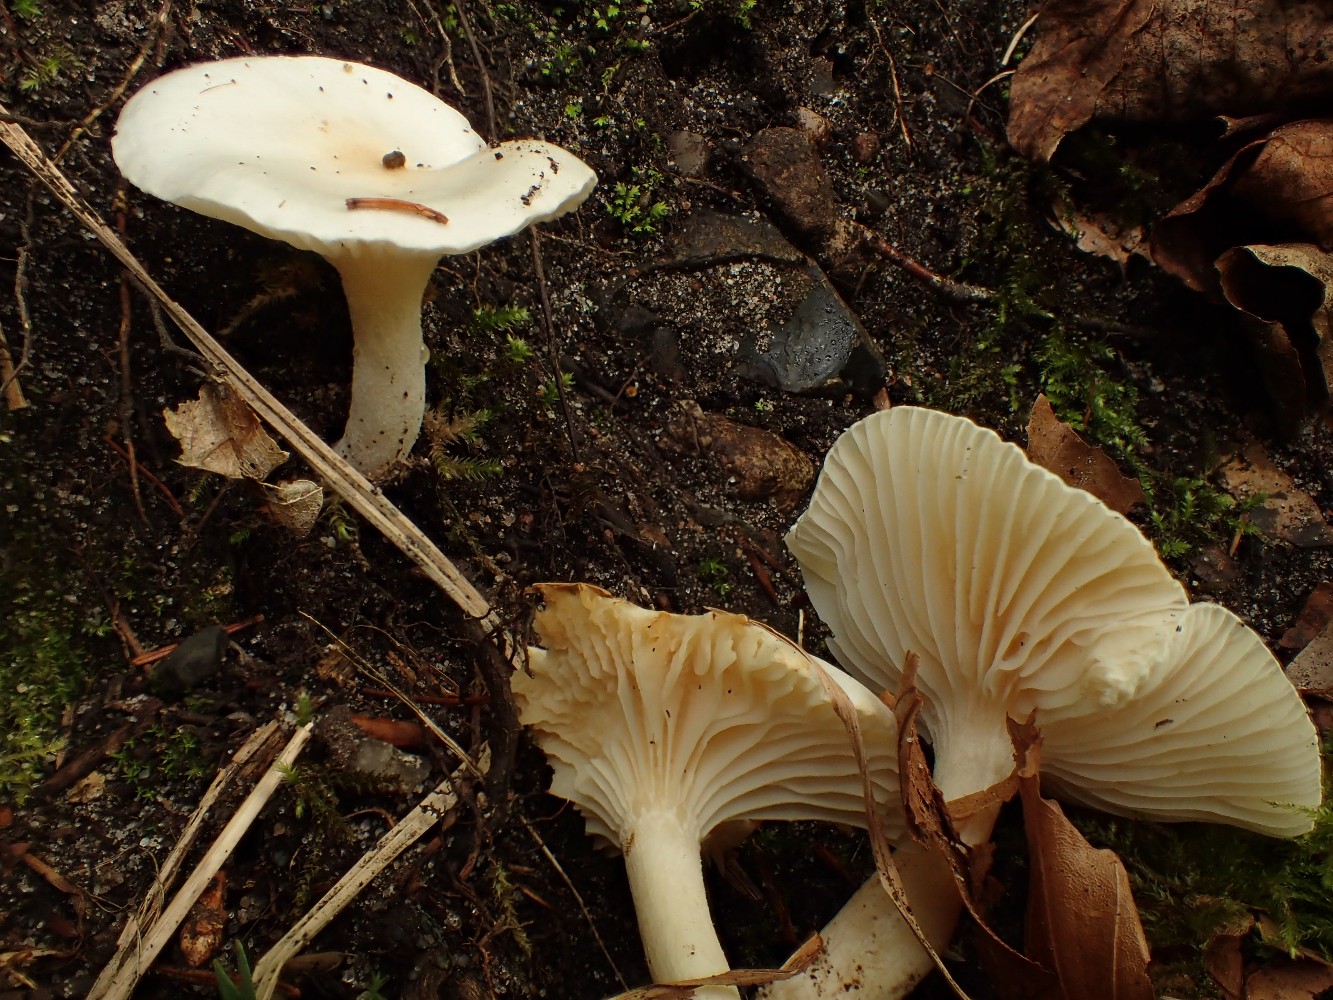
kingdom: Fungi
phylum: Basidiomycota
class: Agaricomycetes
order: Agaricales
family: Hygrophoraceae
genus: Hygrophorus
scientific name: Hygrophorus discoxanthus
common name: ildelugtende sneglehat
